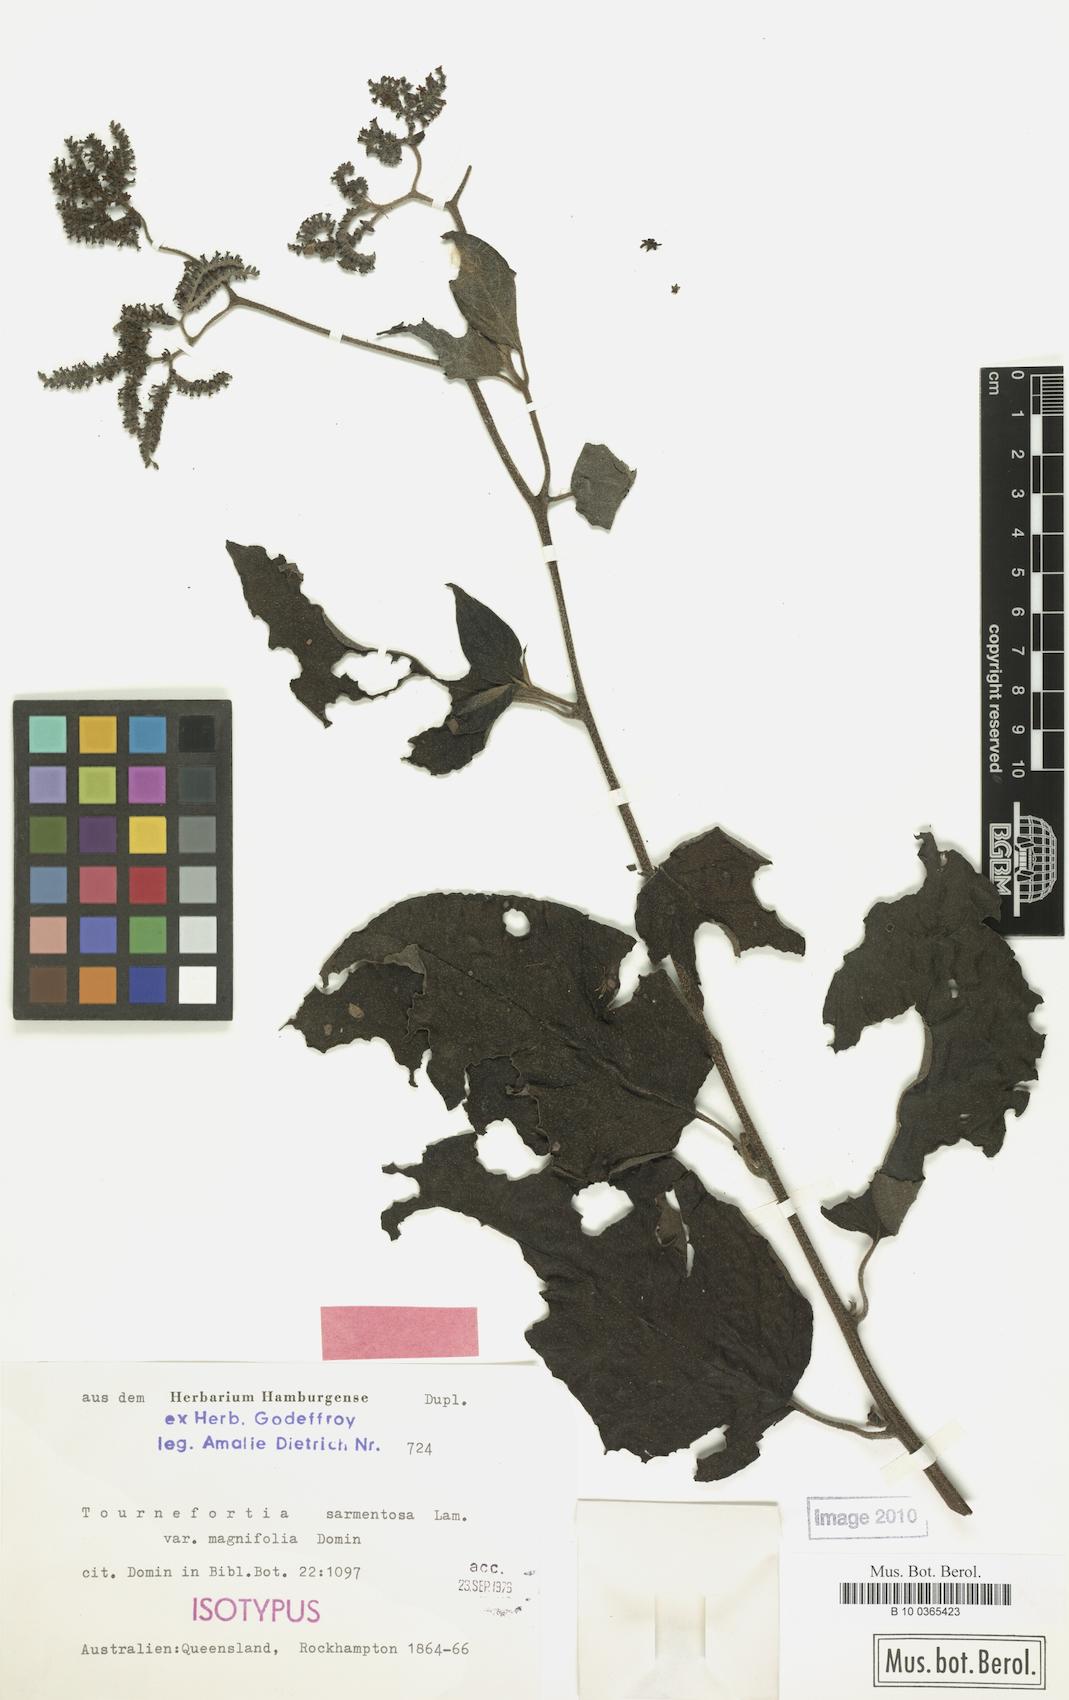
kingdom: Plantae
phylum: Tracheophyta
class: Magnoliopsida
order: Boraginales
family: Heliotropiaceae
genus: Heliotropium
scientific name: Heliotropium sarmentosum
